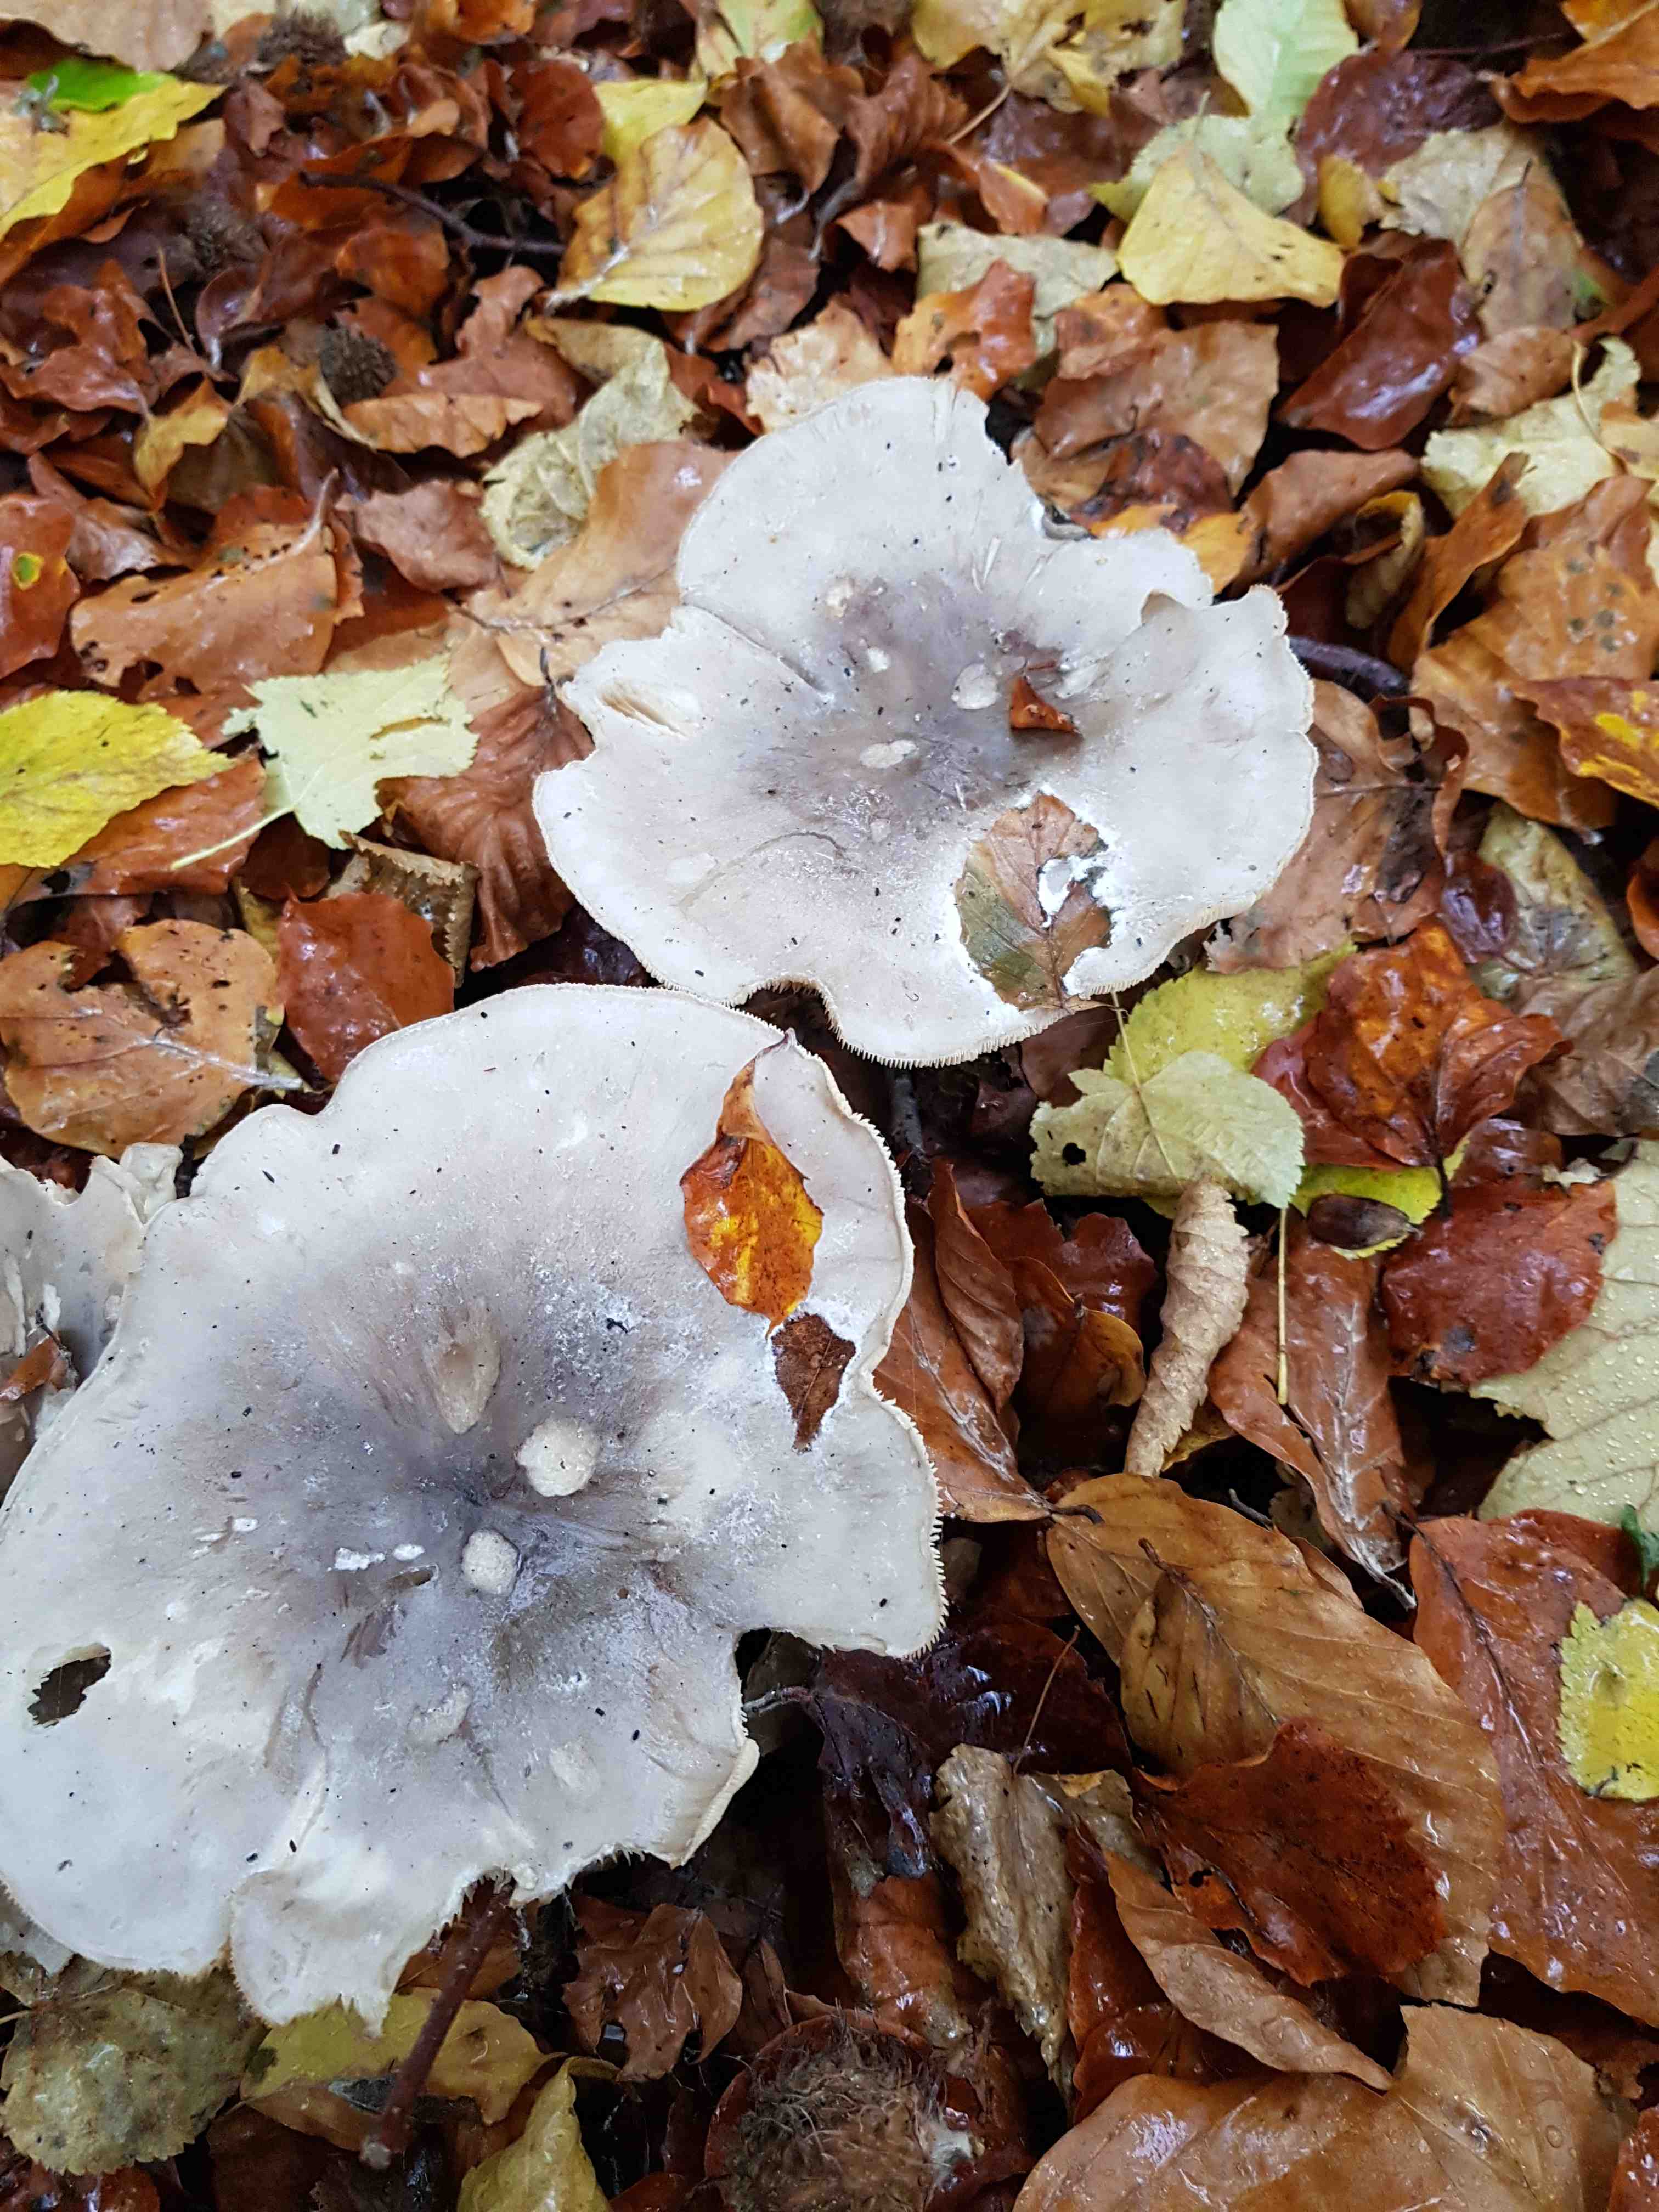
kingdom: Fungi
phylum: Basidiomycota
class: Agaricomycetes
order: Agaricales
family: Tricholomataceae
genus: Clitocybe
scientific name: Clitocybe nebularis
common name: tåge-tragthat
